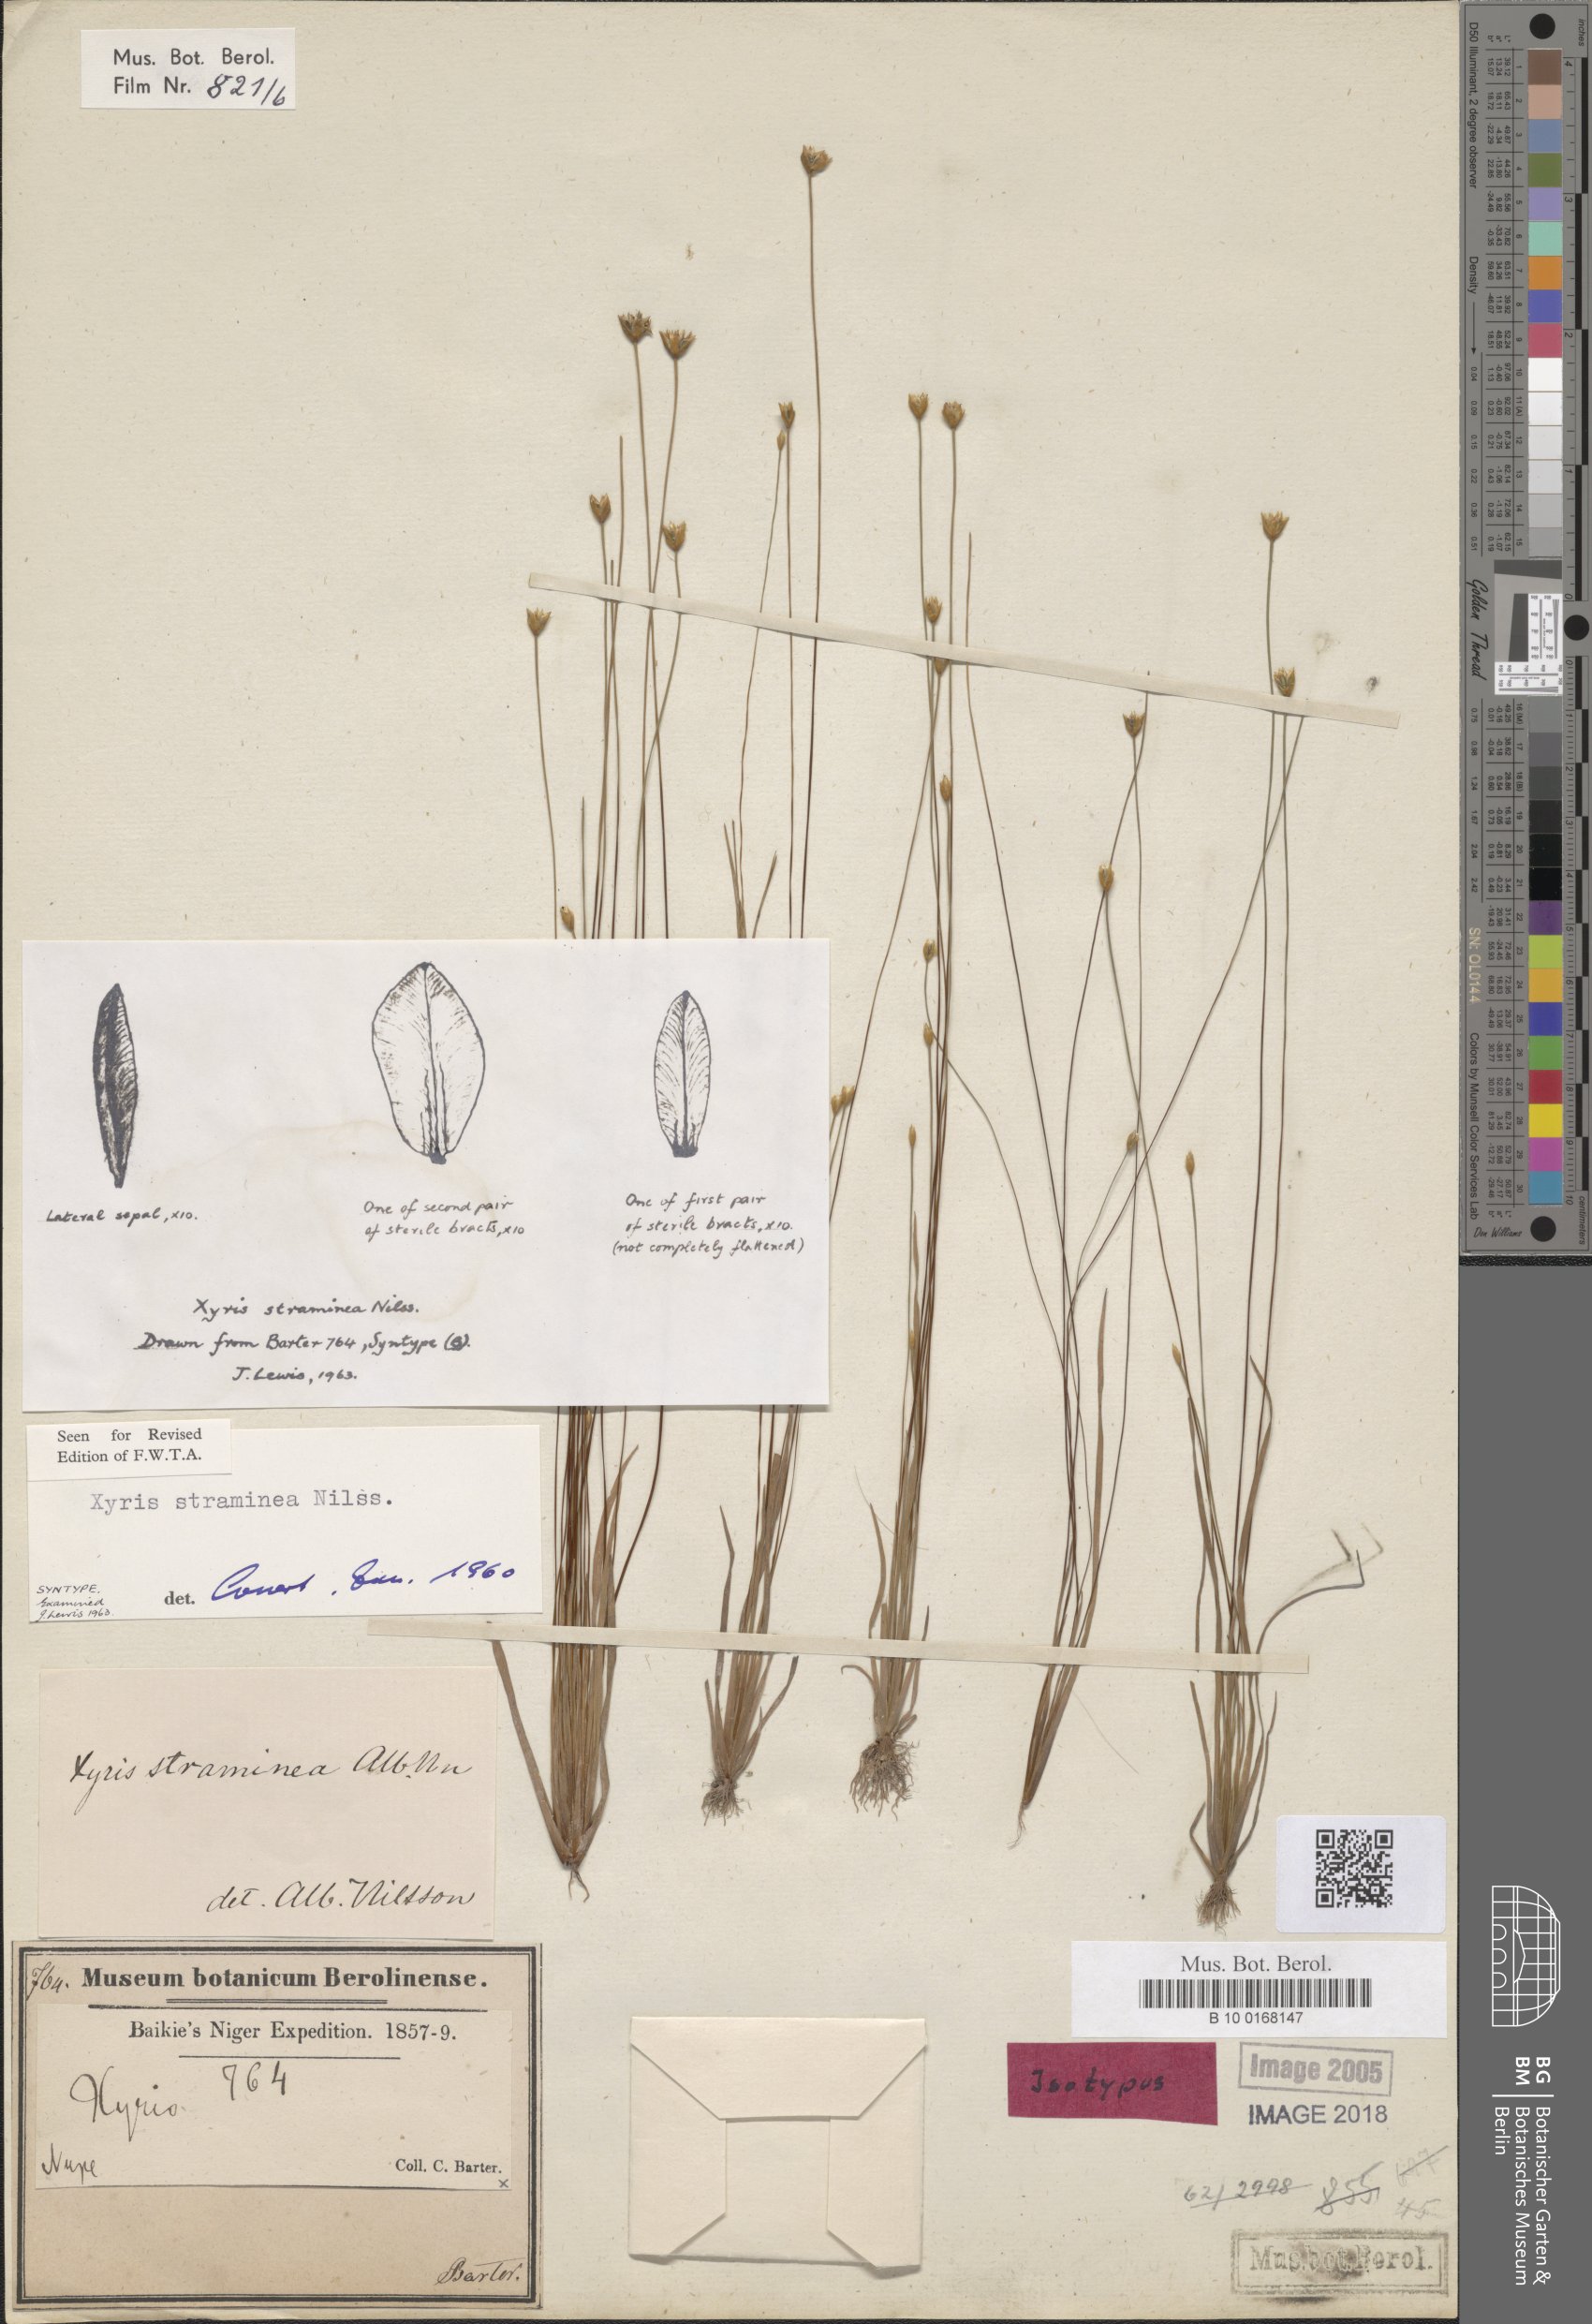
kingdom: Plantae
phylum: Tracheophyta
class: Liliopsida
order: Poales
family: Xyridaceae
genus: Xyris
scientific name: Xyris straminea
